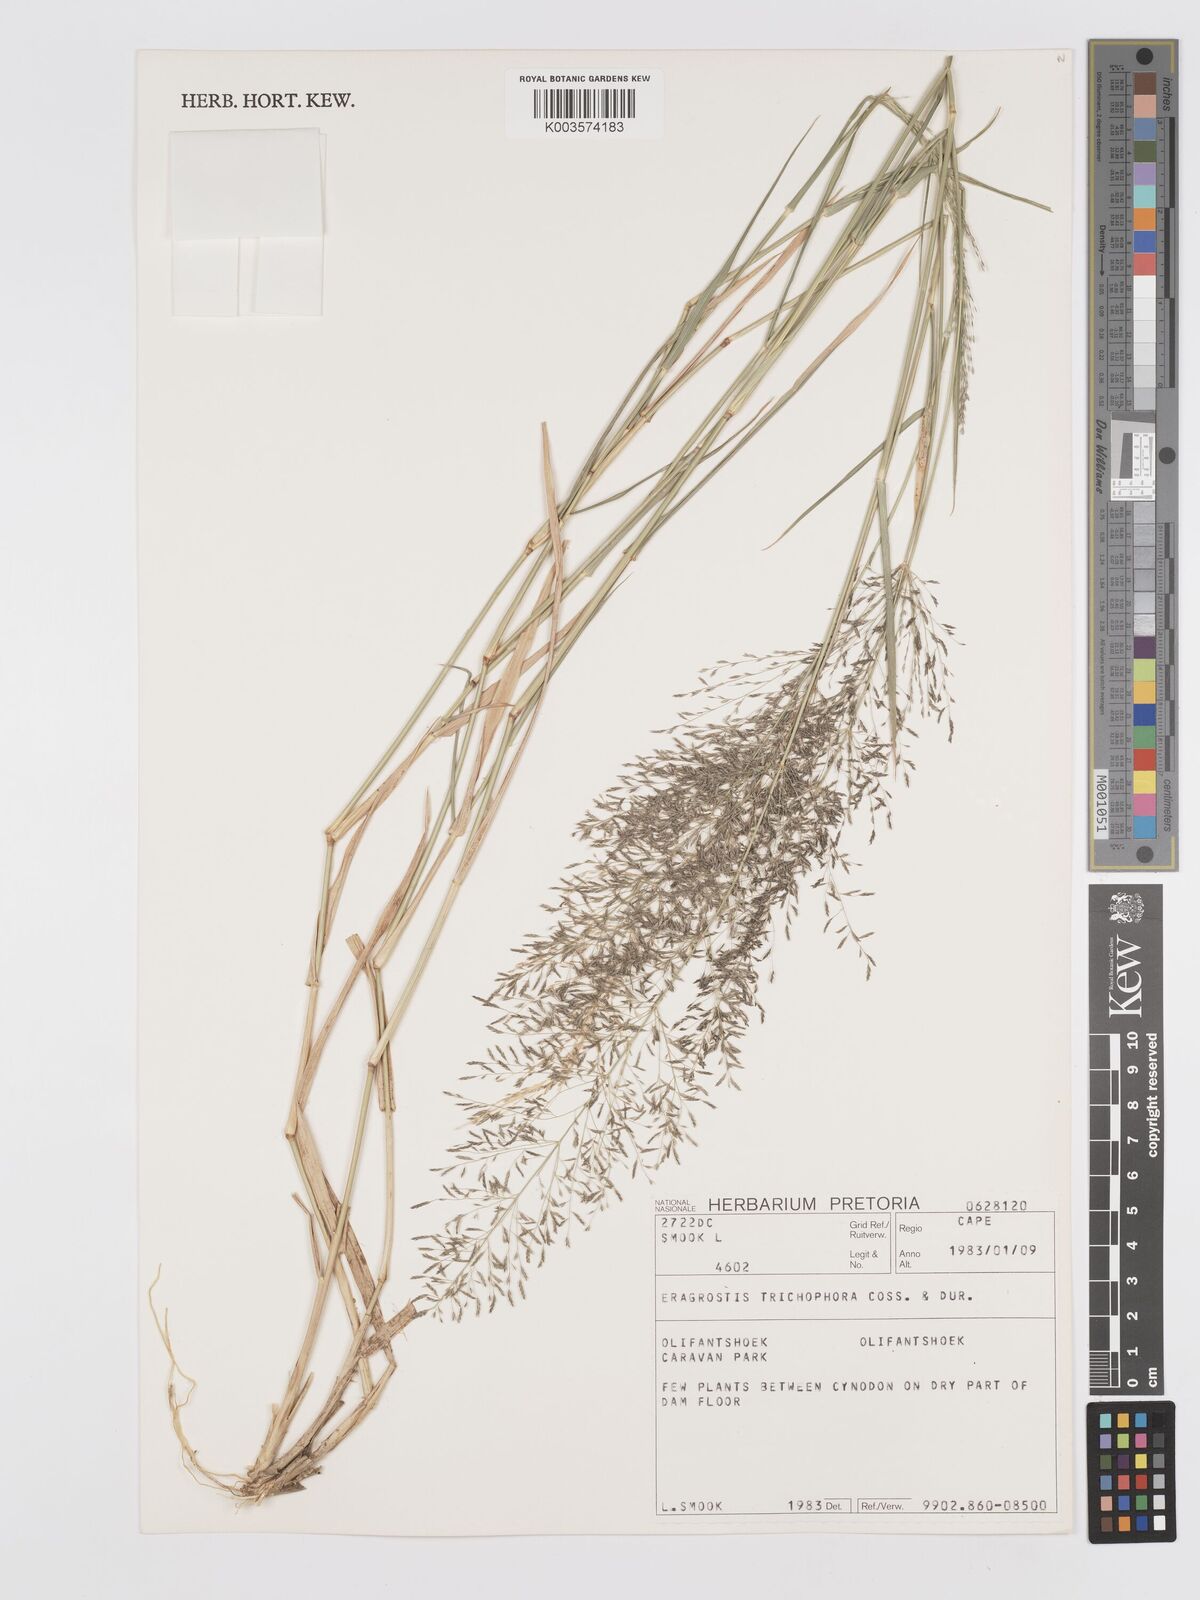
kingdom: Plantae
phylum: Tracheophyta
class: Liliopsida
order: Poales
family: Poaceae
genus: Eragrostis
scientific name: Eragrostis cylindriflora
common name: Cylinderflower lovegrass
